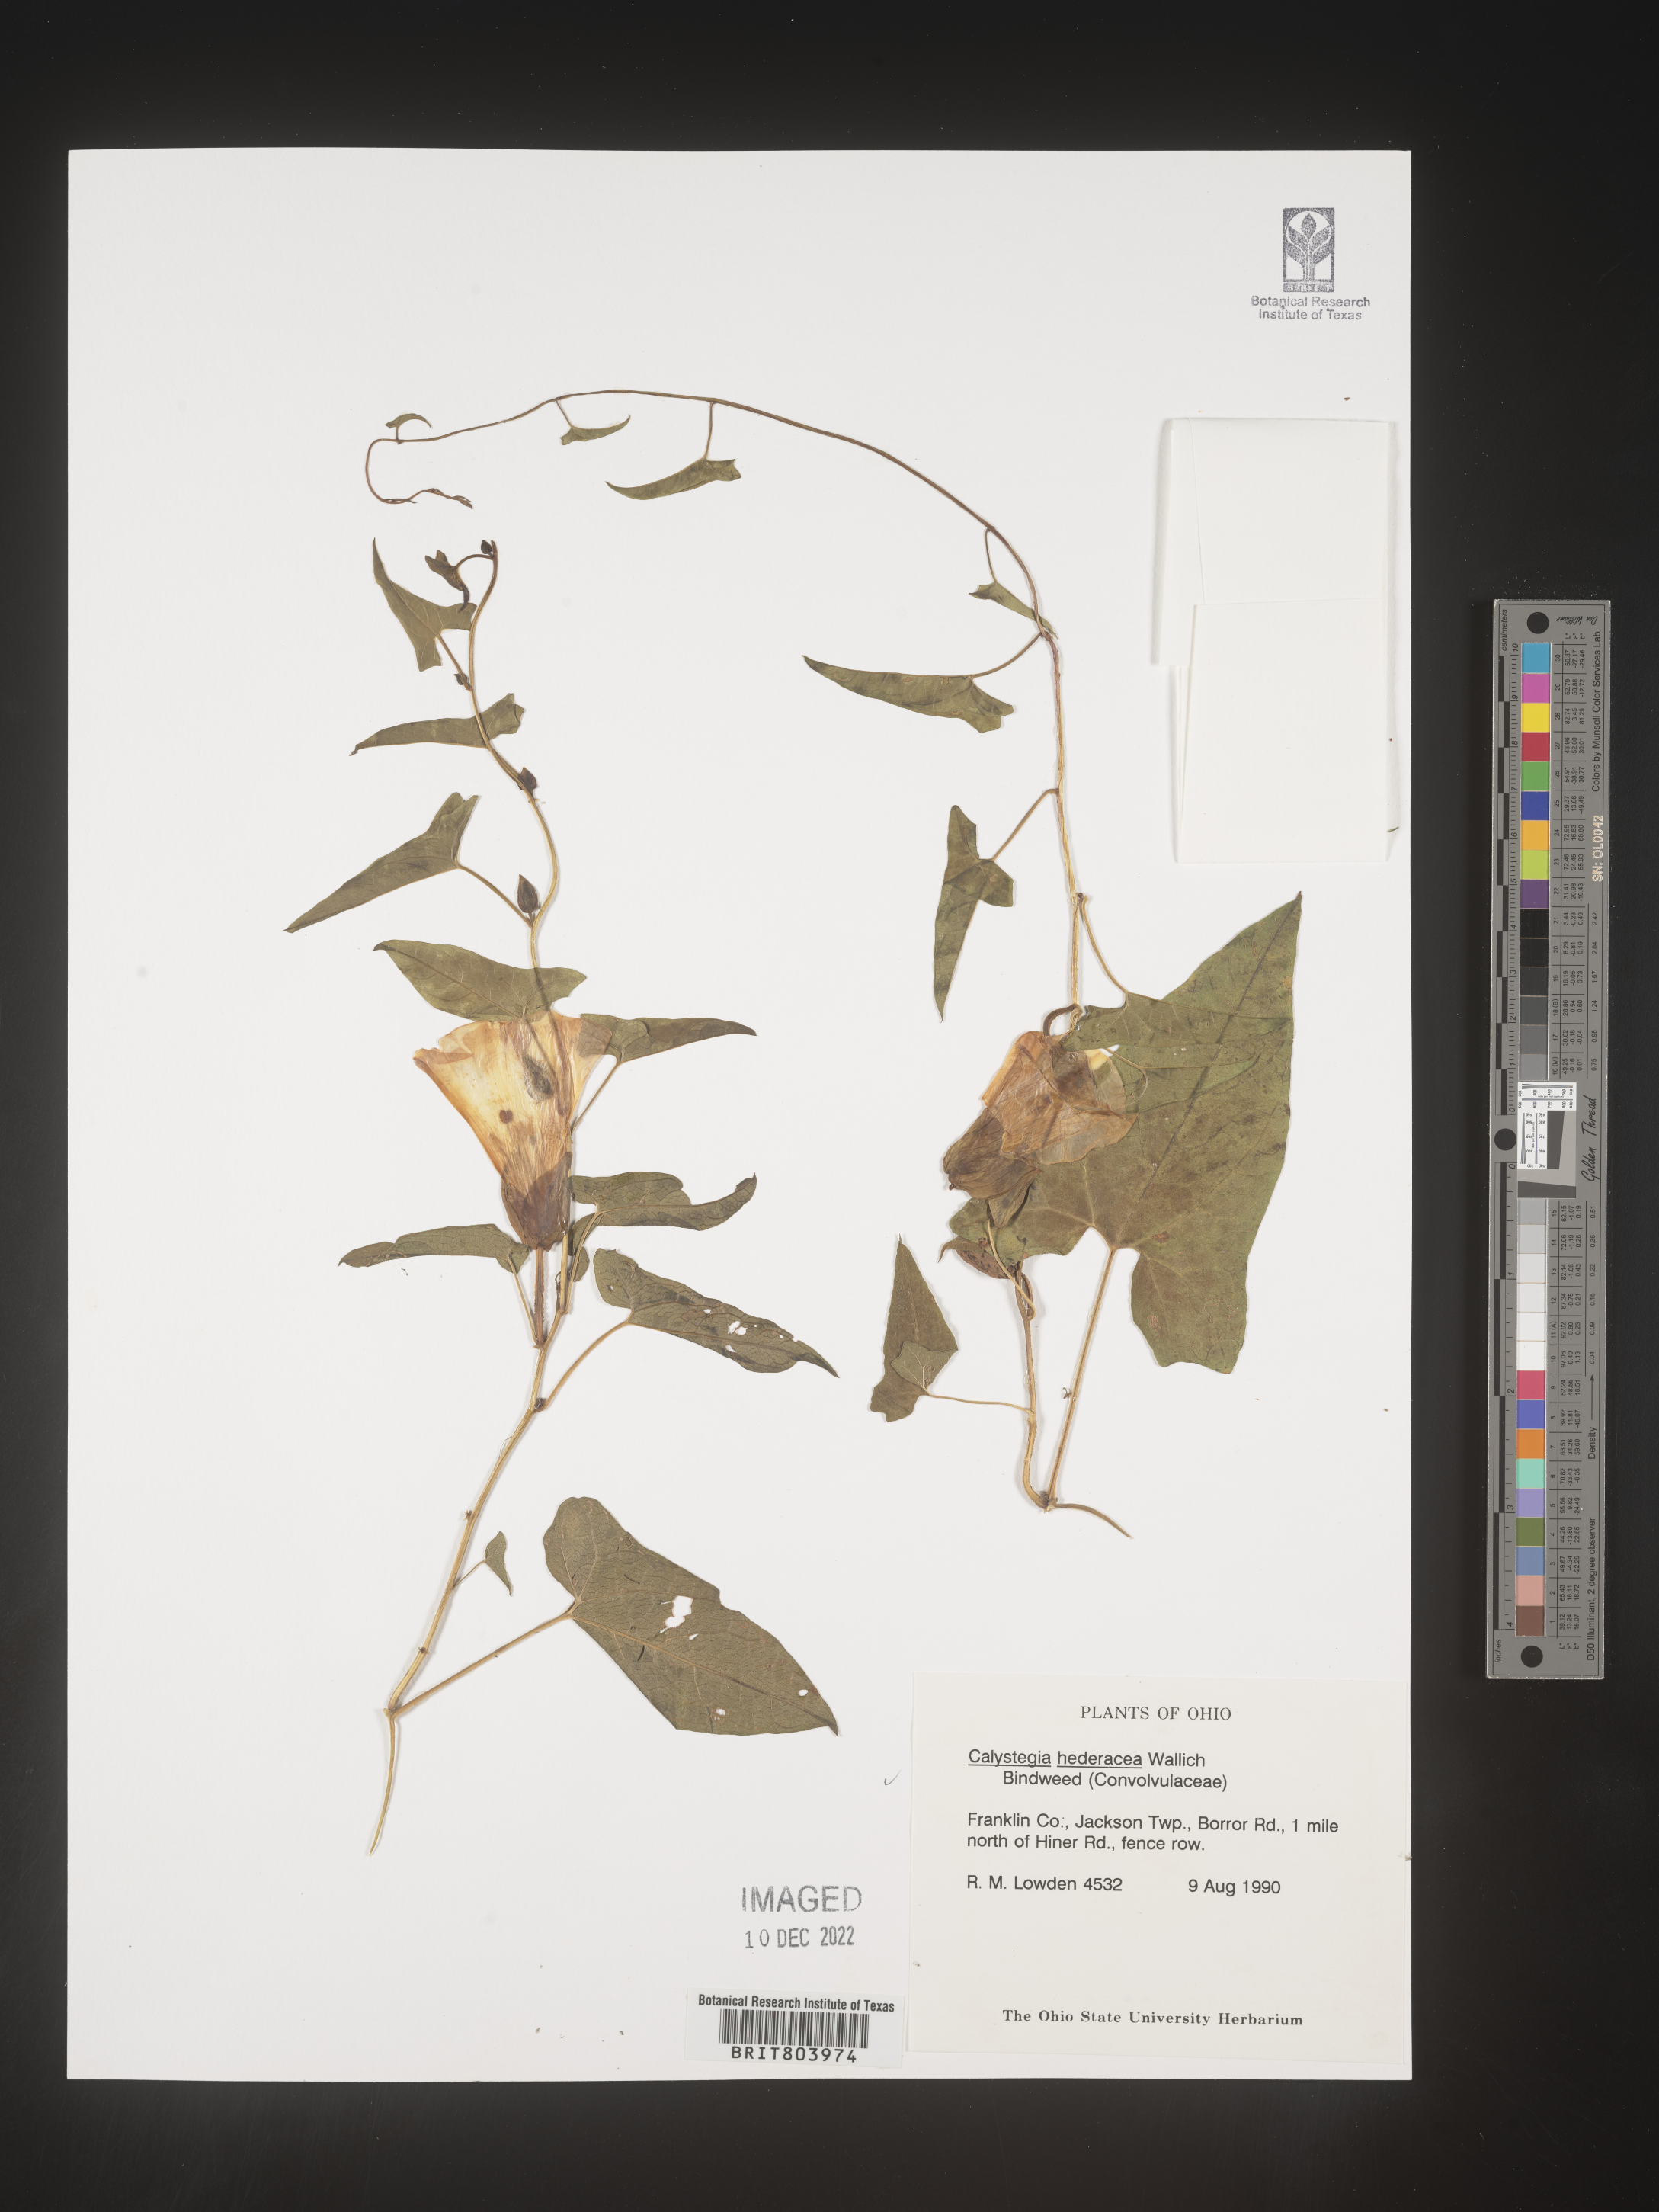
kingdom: Plantae
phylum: Tracheophyta
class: Magnoliopsida
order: Solanales
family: Convolvulaceae
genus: Calystegia
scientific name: Calystegia
